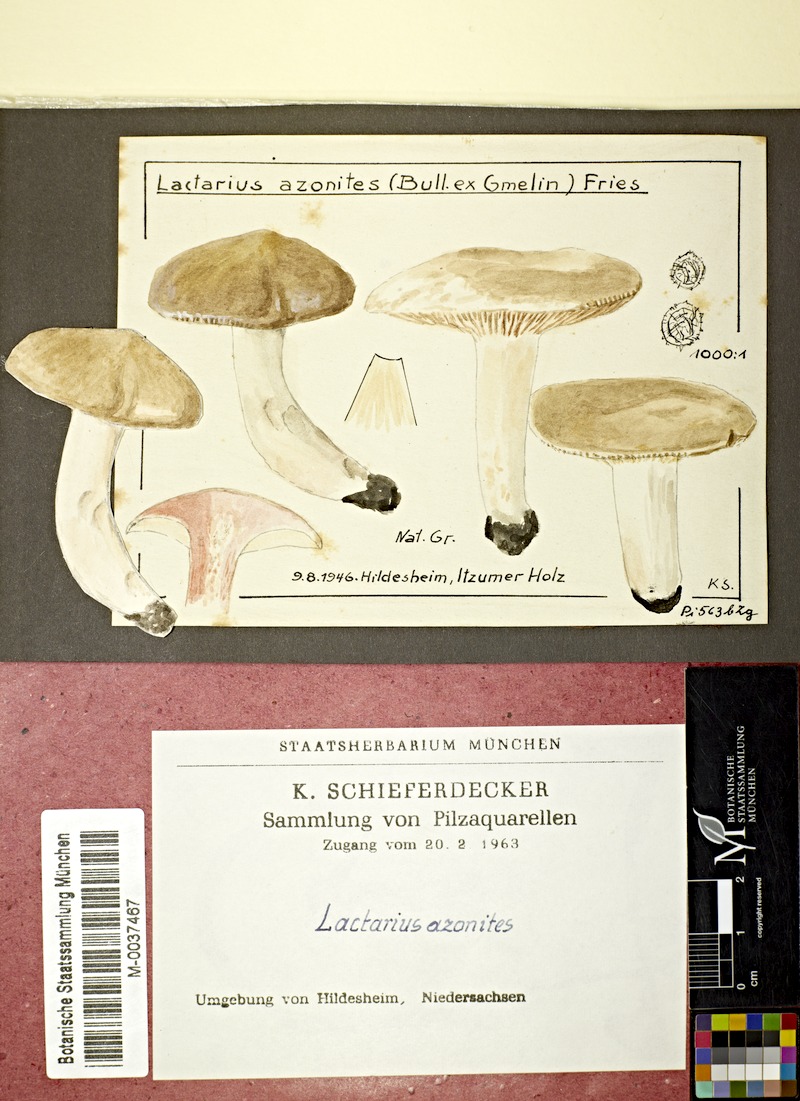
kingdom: Fungi
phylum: Basidiomycota
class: Agaricomycetes
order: Russulales
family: Russulaceae
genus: Lactarius
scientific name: Lactarius azonites
